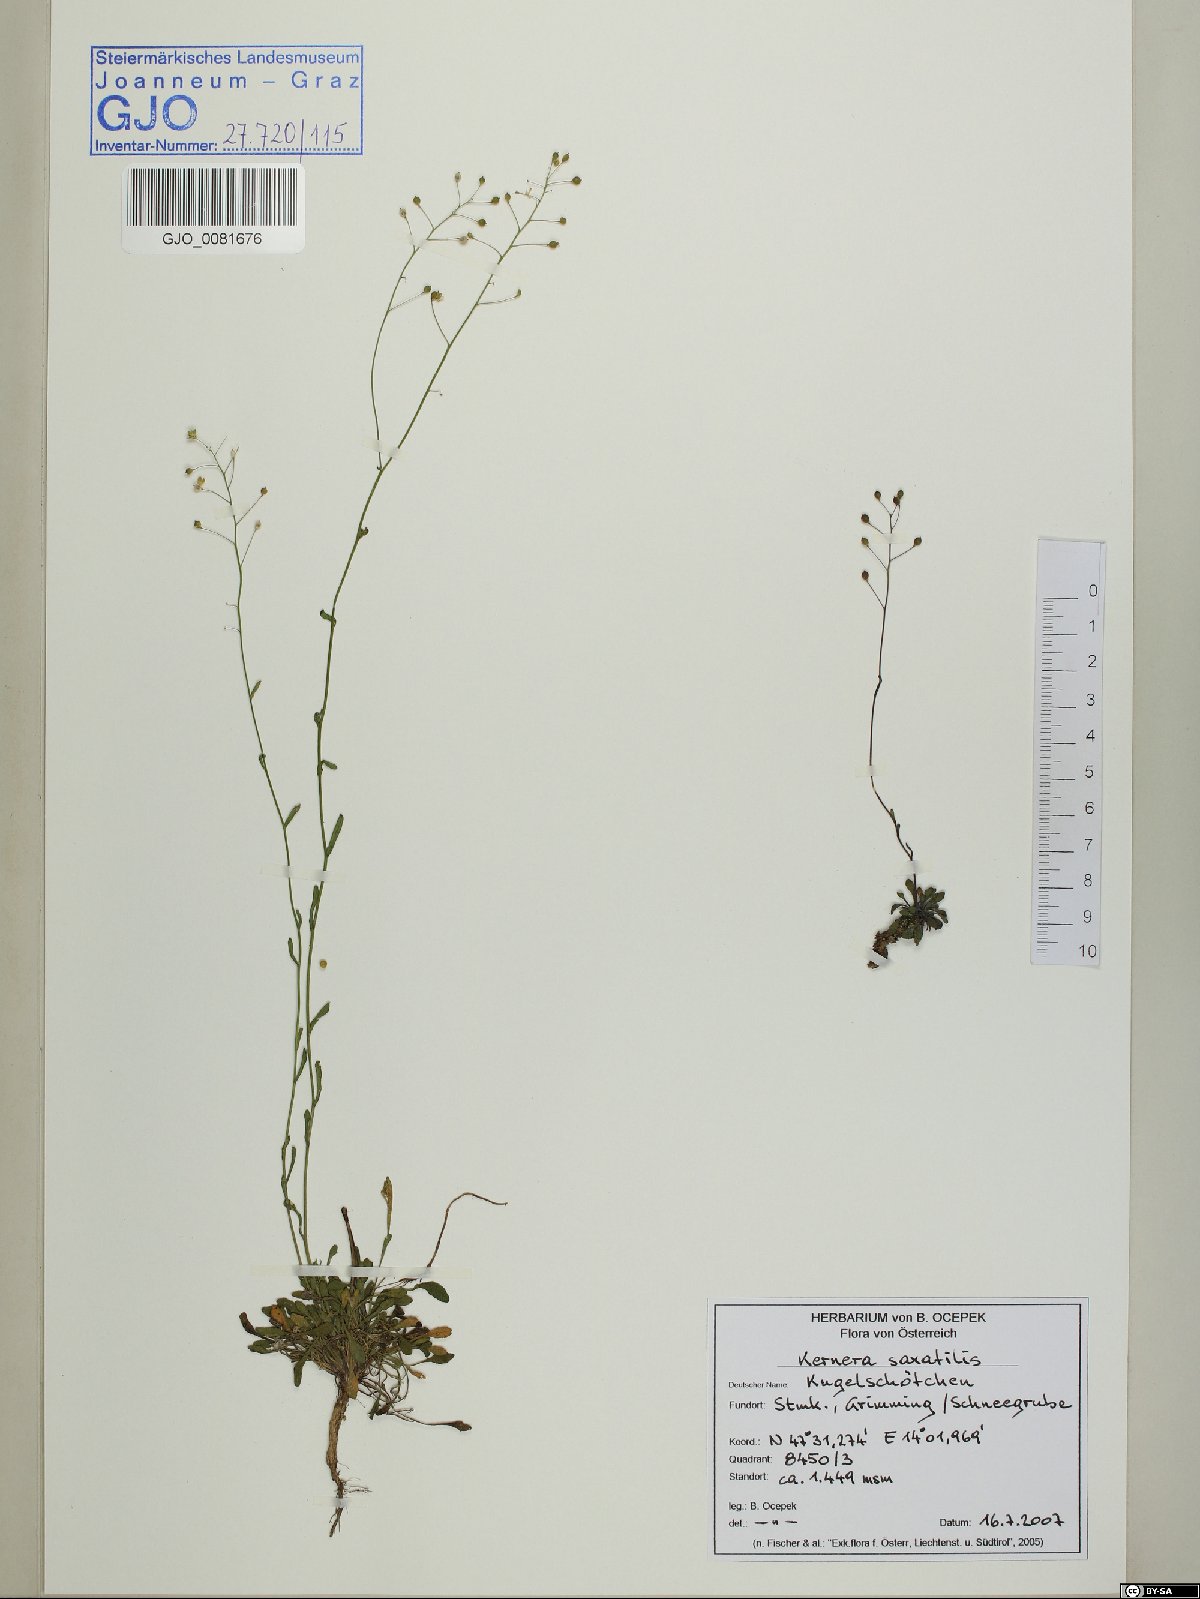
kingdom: Plantae
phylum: Tracheophyta
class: Magnoliopsida
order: Brassicales
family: Brassicaceae
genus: Kernera
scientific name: Kernera saxatilis
